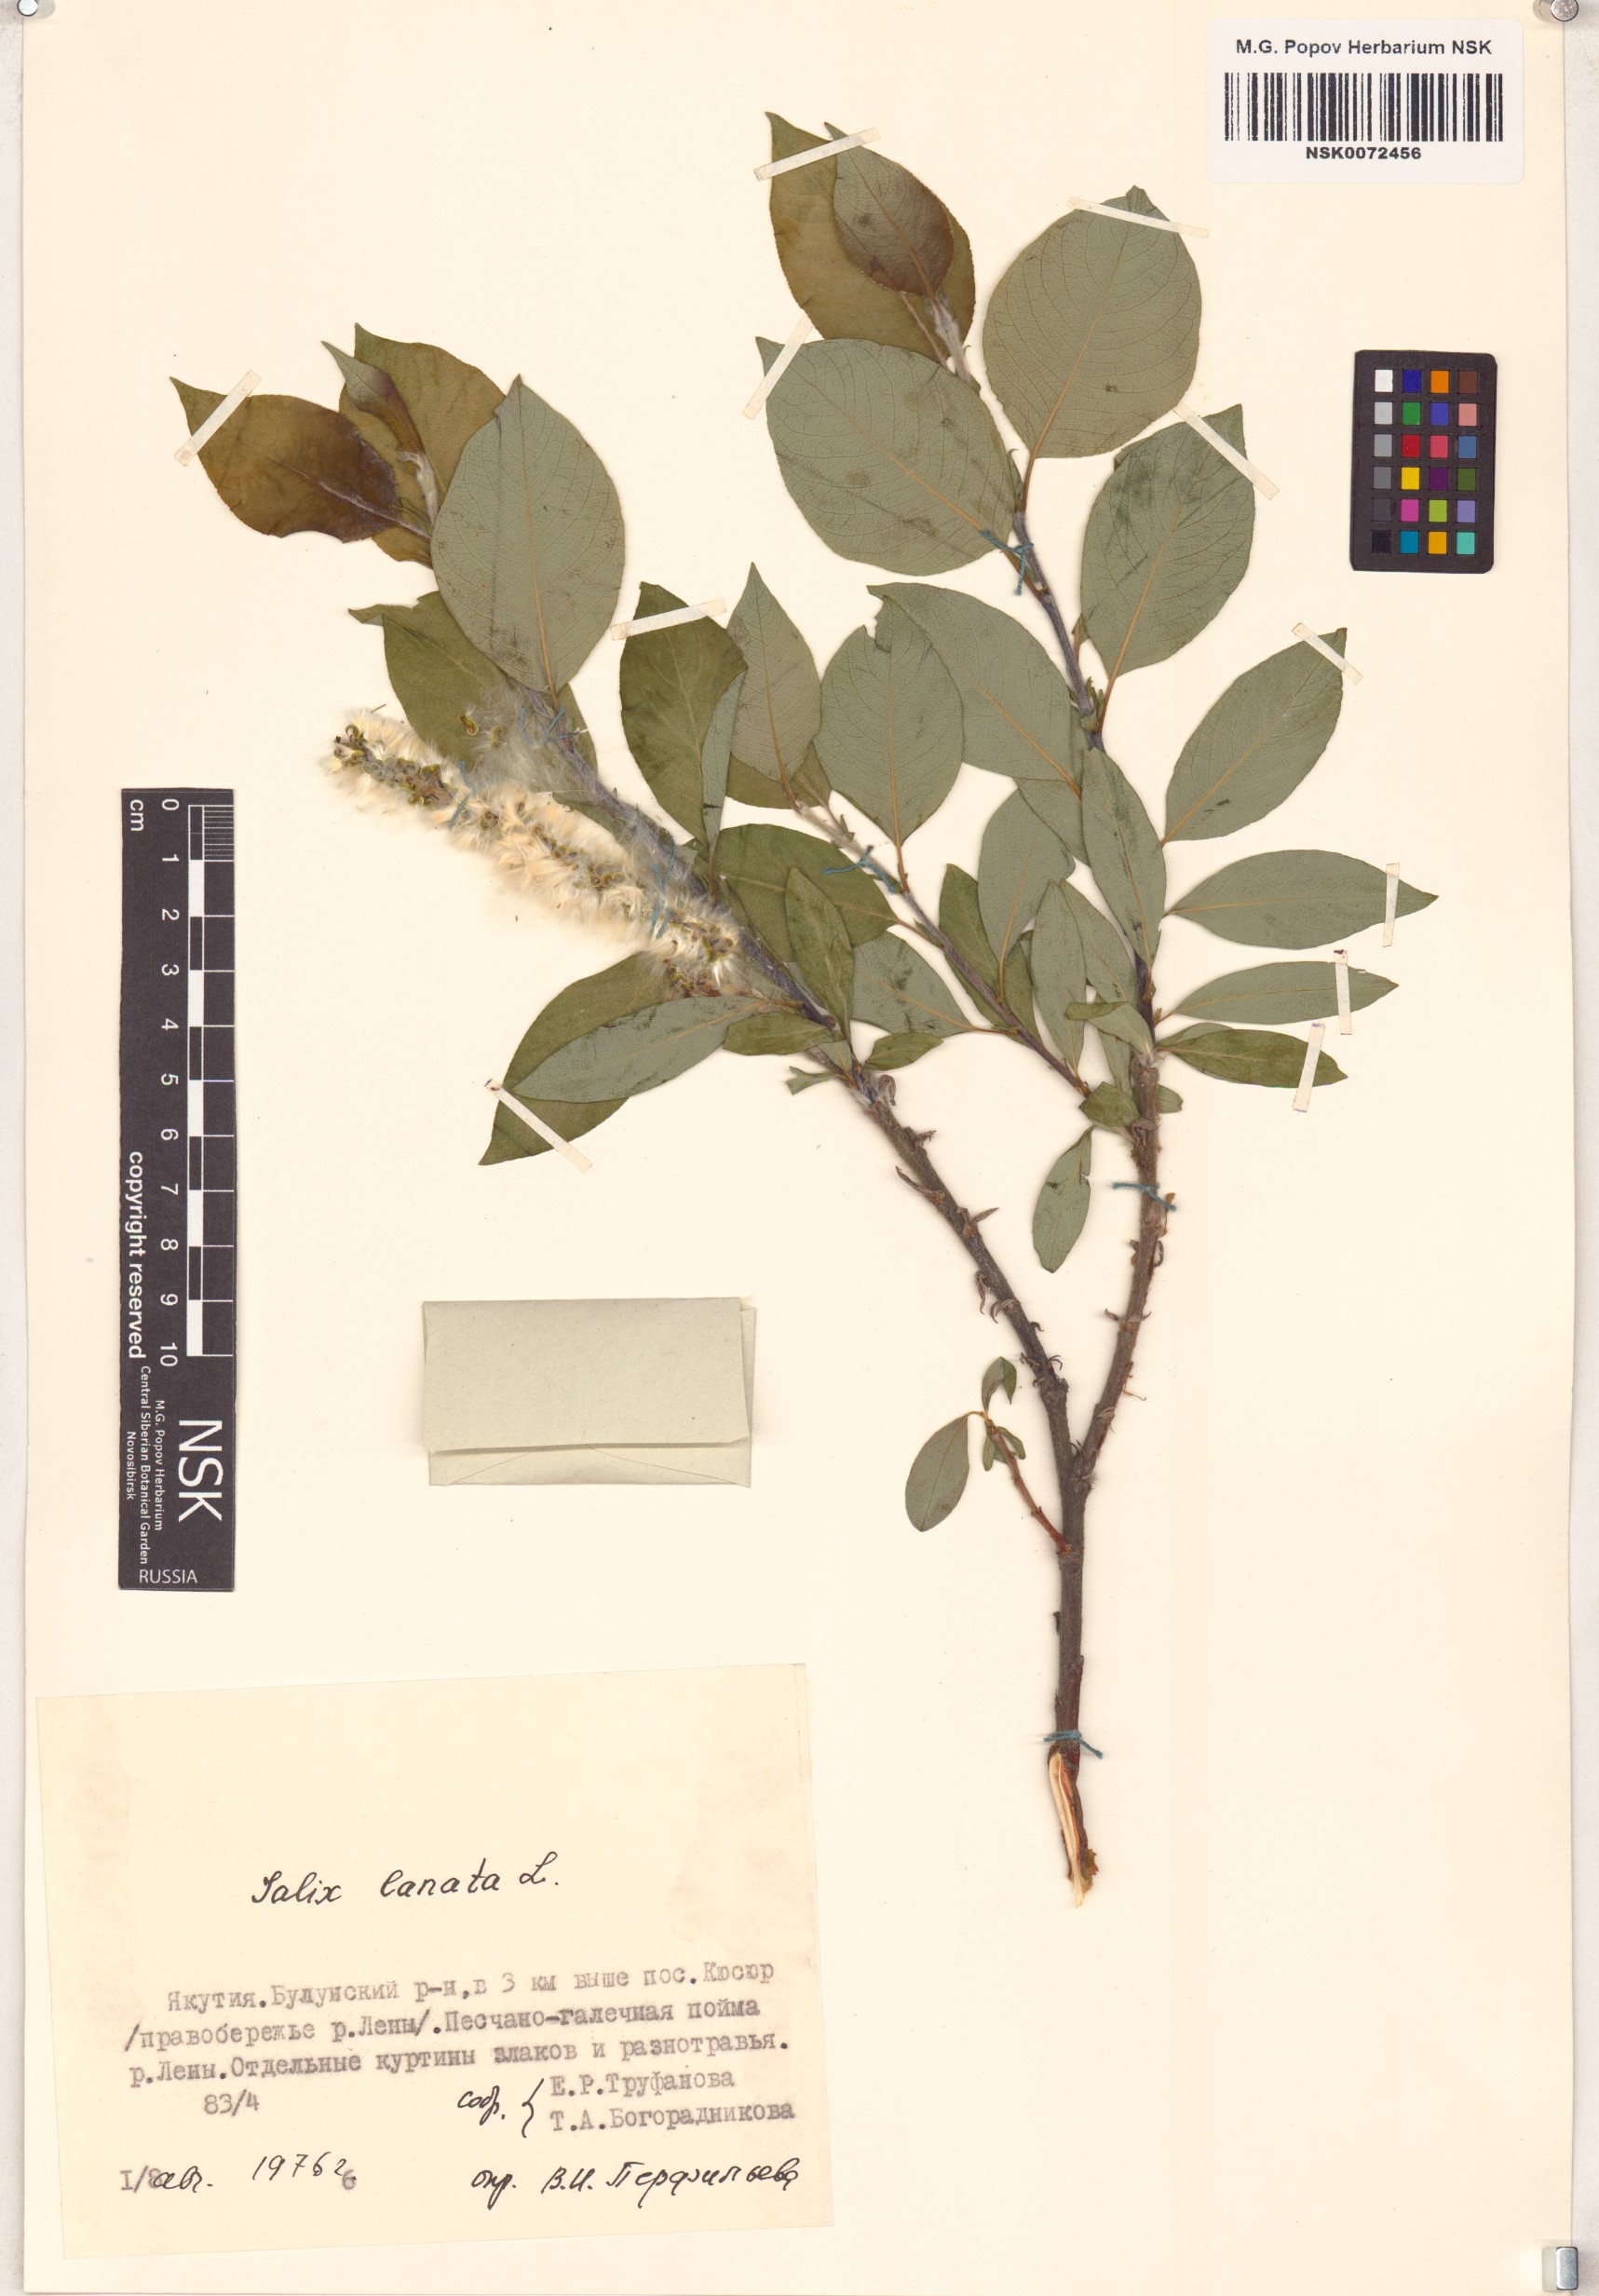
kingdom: Plantae
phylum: Tracheophyta
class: Magnoliopsida
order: Malpighiales
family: Salicaceae
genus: Salix
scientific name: Salix lanata
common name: Woolly willow
